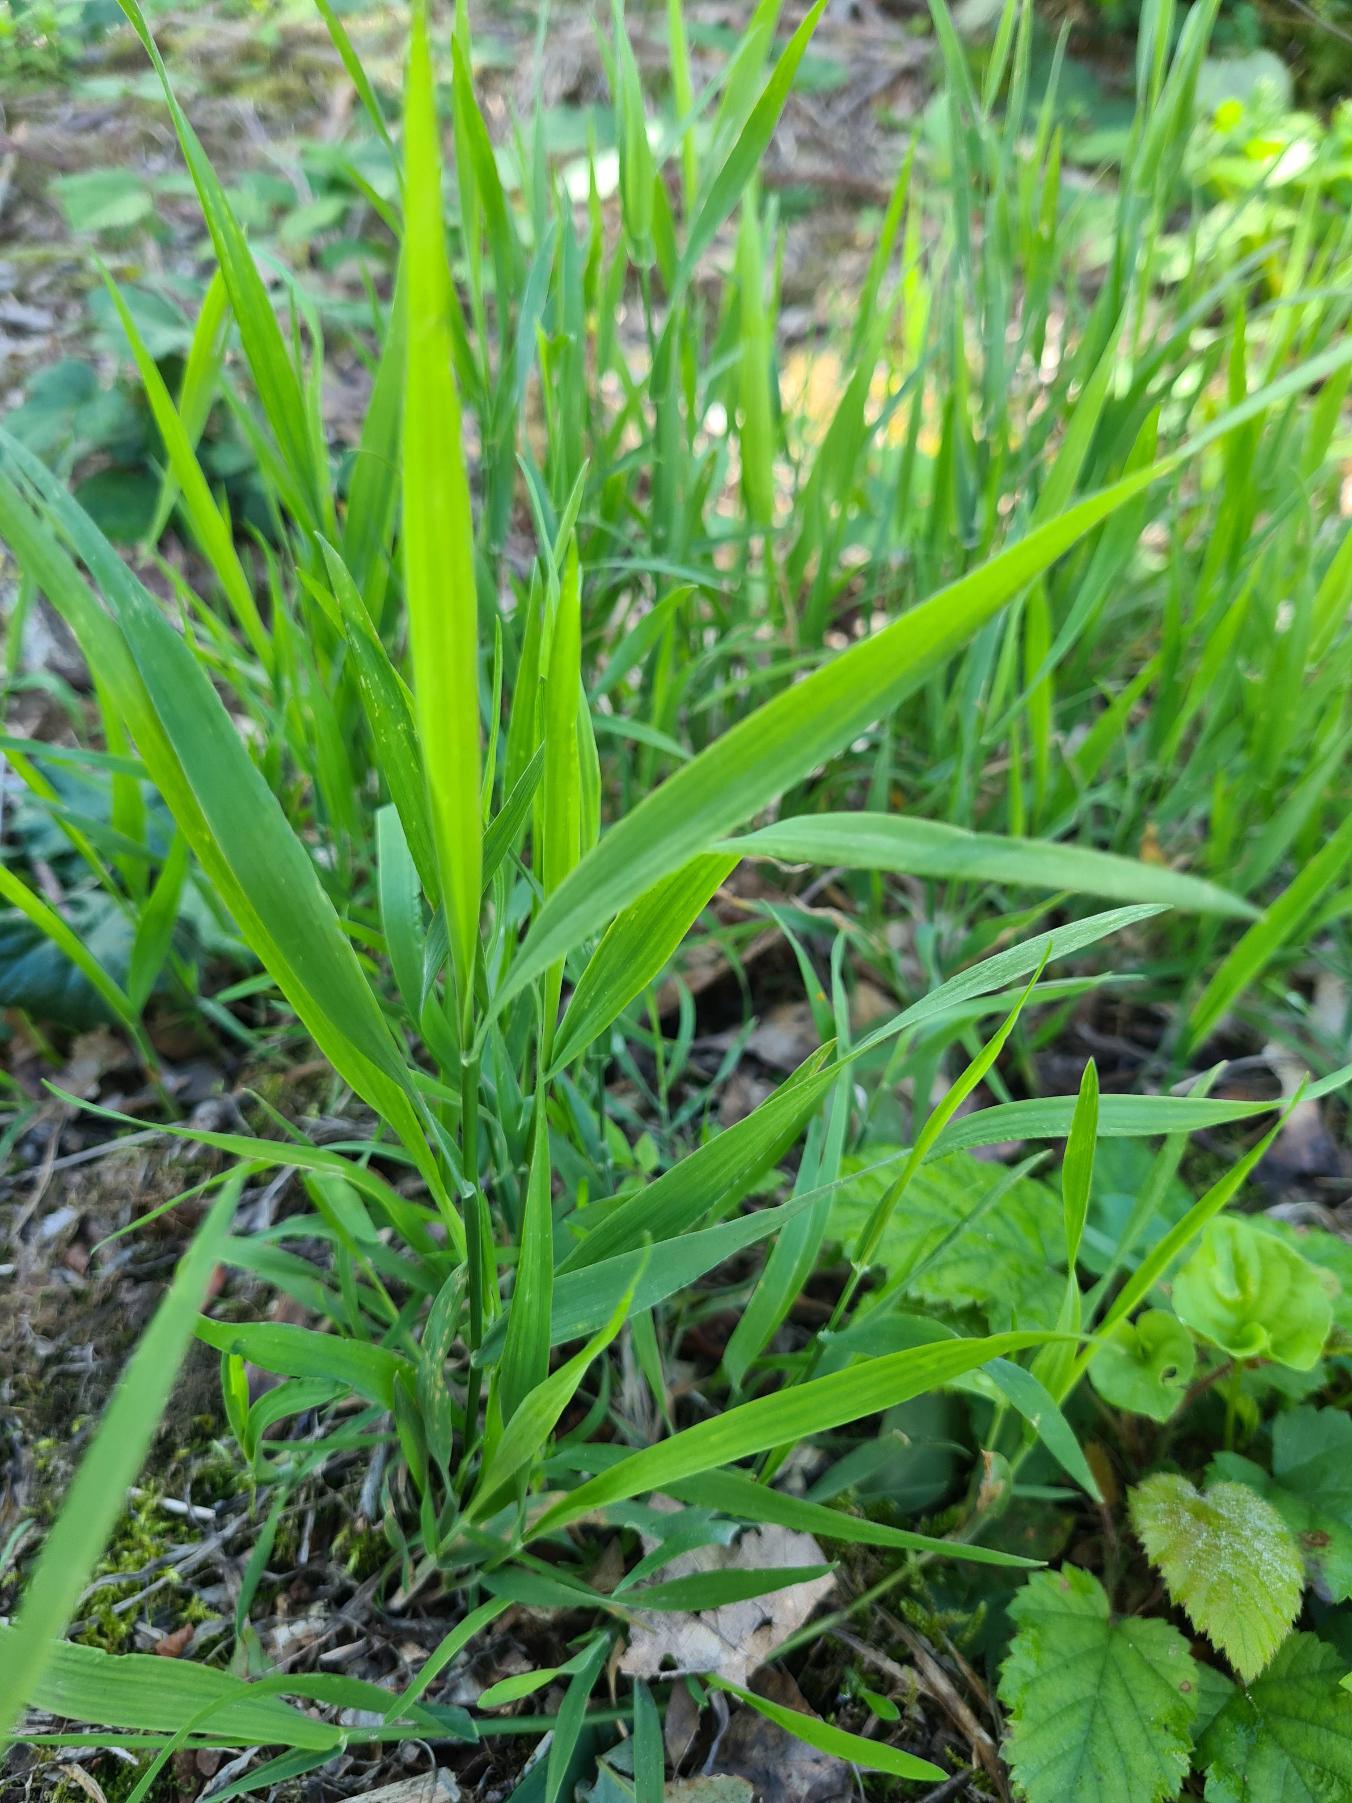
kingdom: Plantae
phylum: Tracheophyta
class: Liliopsida
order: Poales
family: Poaceae
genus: Holcus
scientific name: Holcus mollis
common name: Krybende hestegræs
